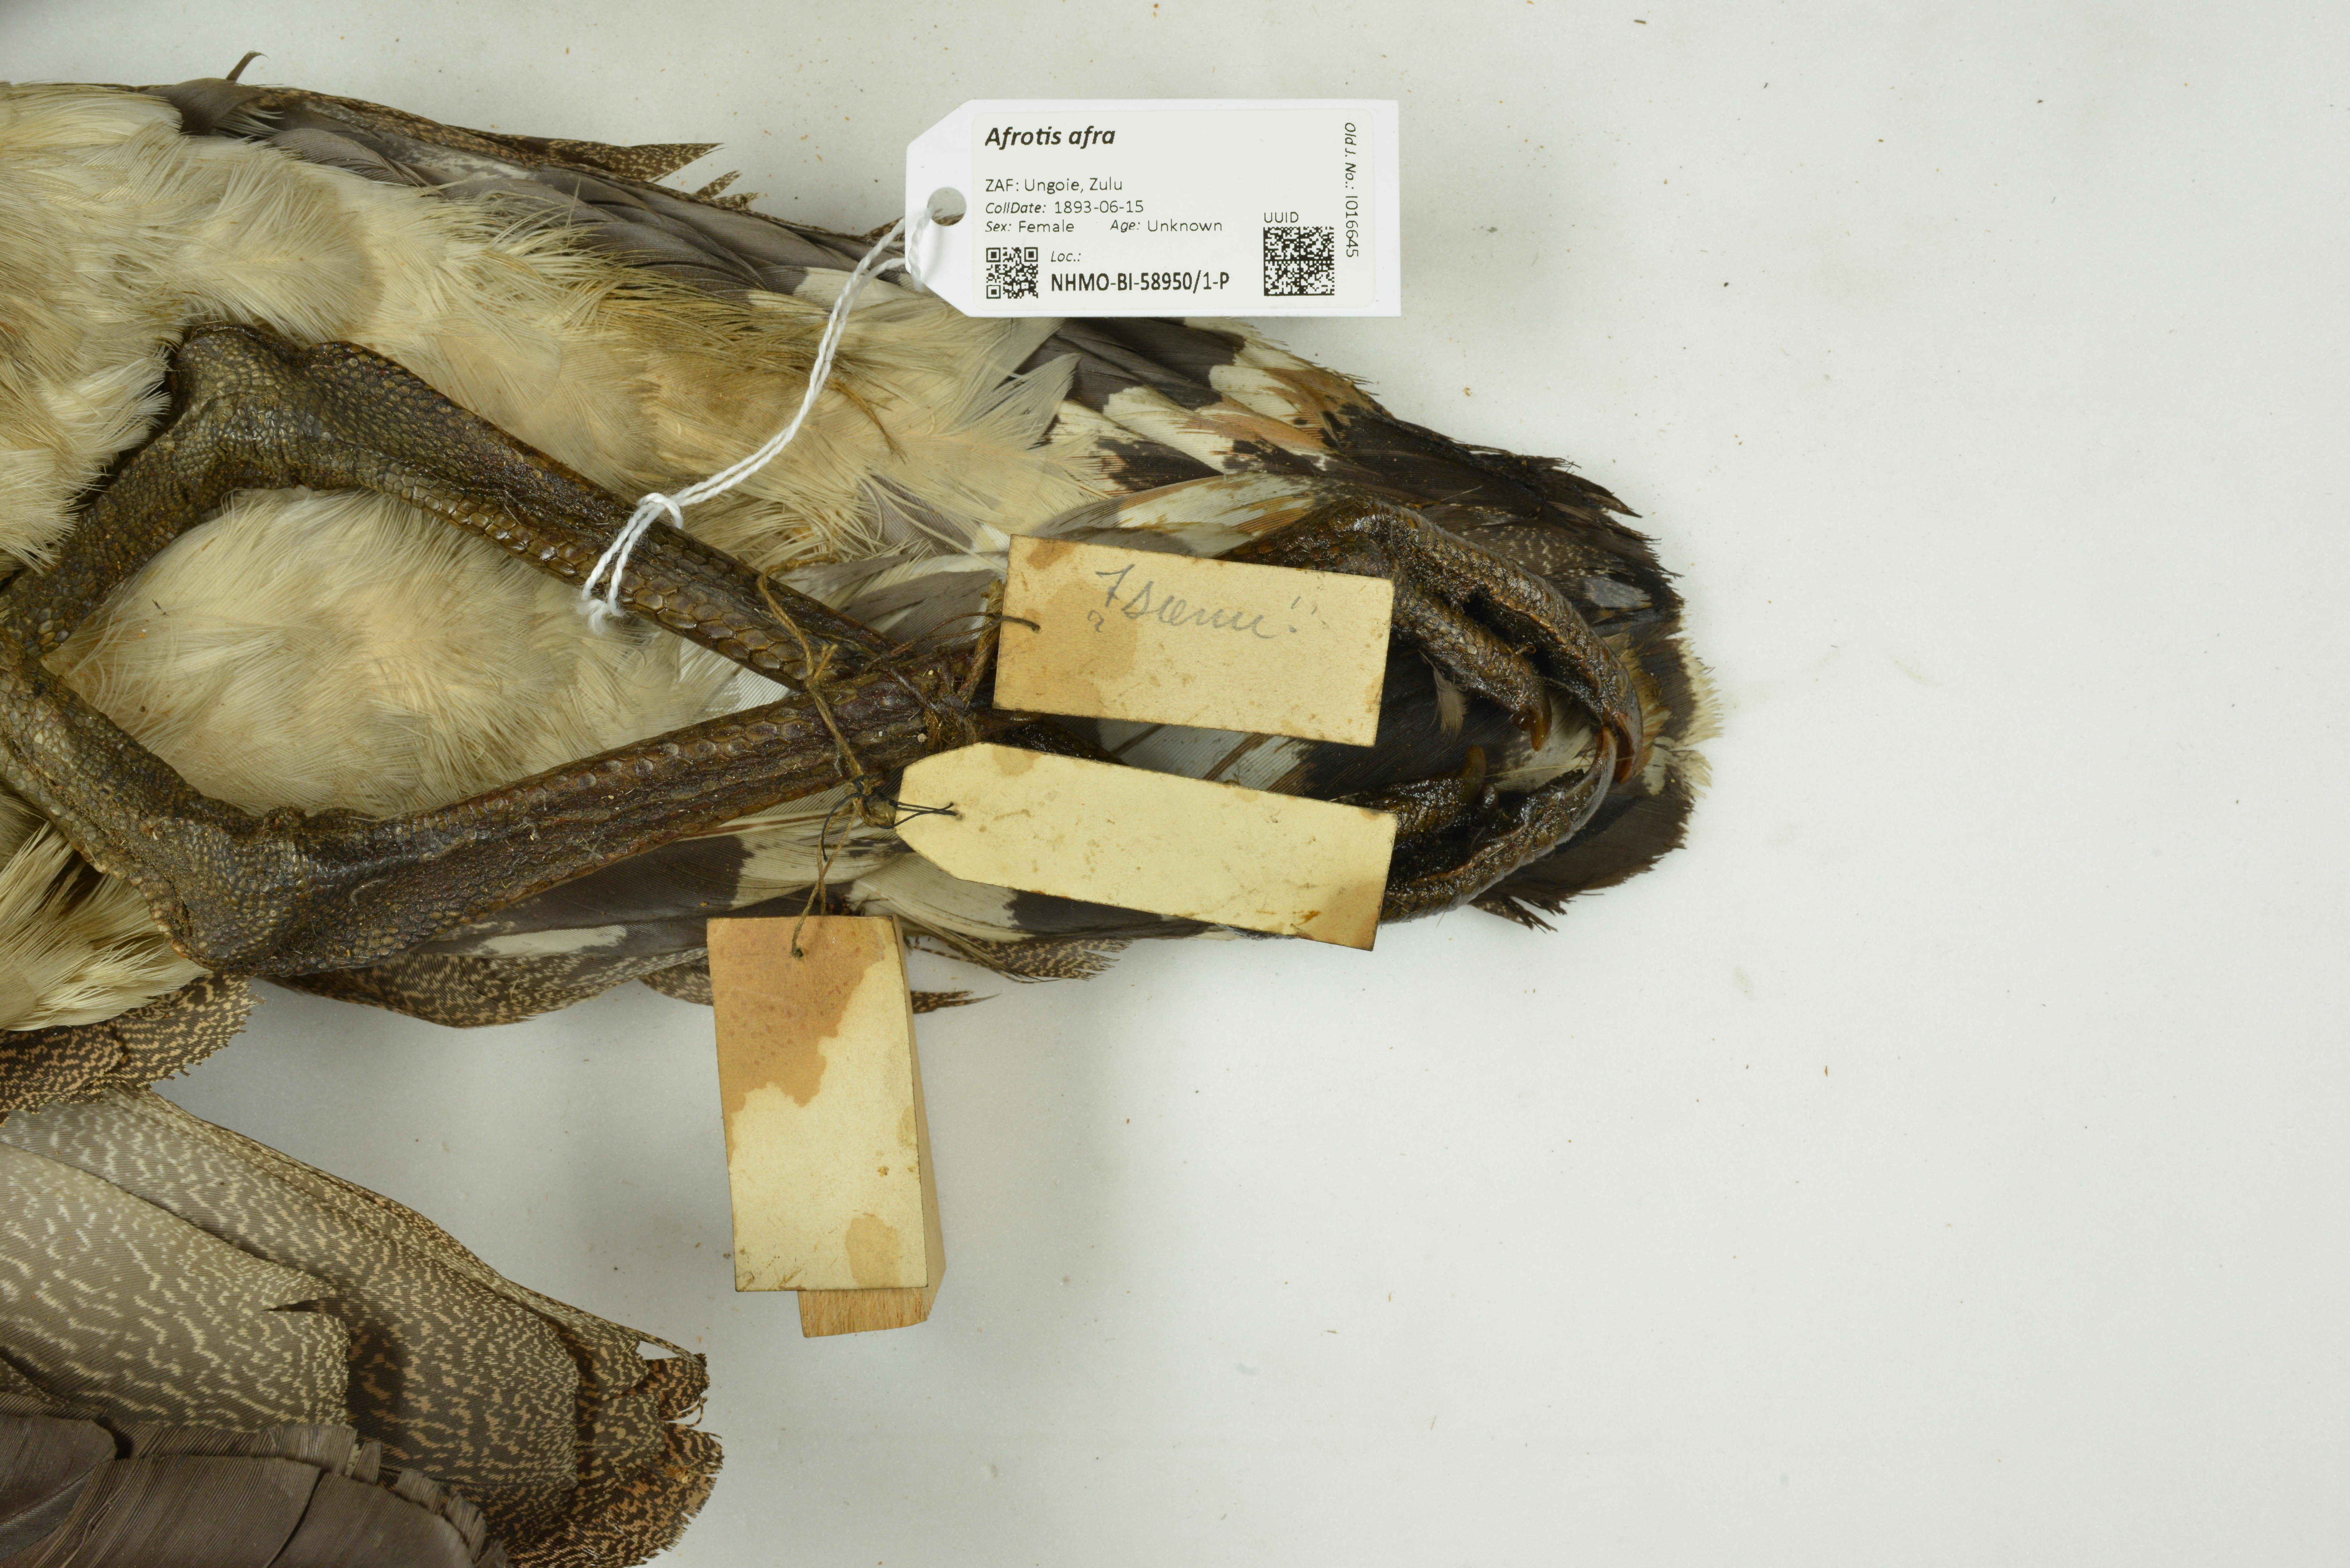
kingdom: Animalia
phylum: Chordata
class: Aves
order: Otidiformes
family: Otididae
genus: Afrotis
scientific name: Afrotis afra
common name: Southern black korhaan
